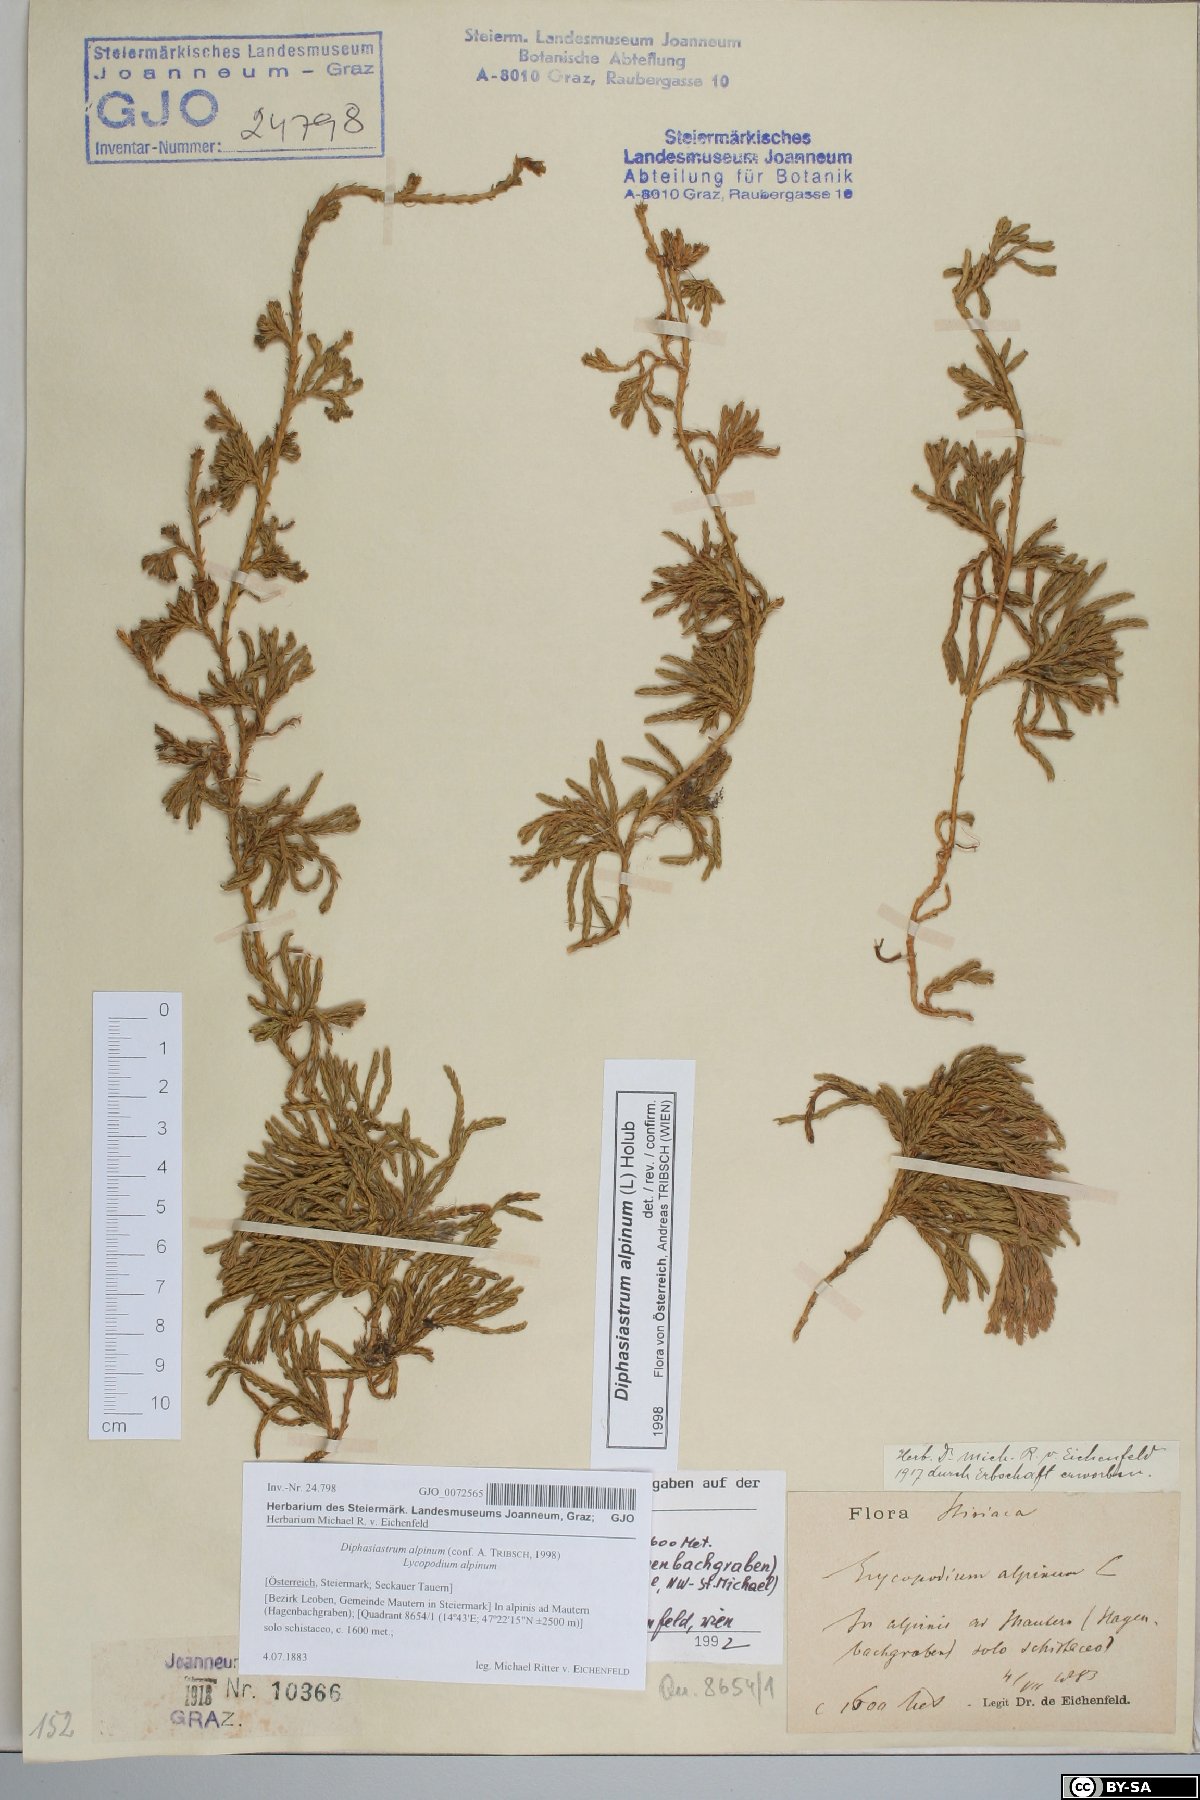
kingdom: Plantae
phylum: Tracheophyta
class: Lycopodiopsida
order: Lycopodiales
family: Lycopodiaceae
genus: Diphasiastrum
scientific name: Diphasiastrum alpinum
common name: Alpine clubmoss
